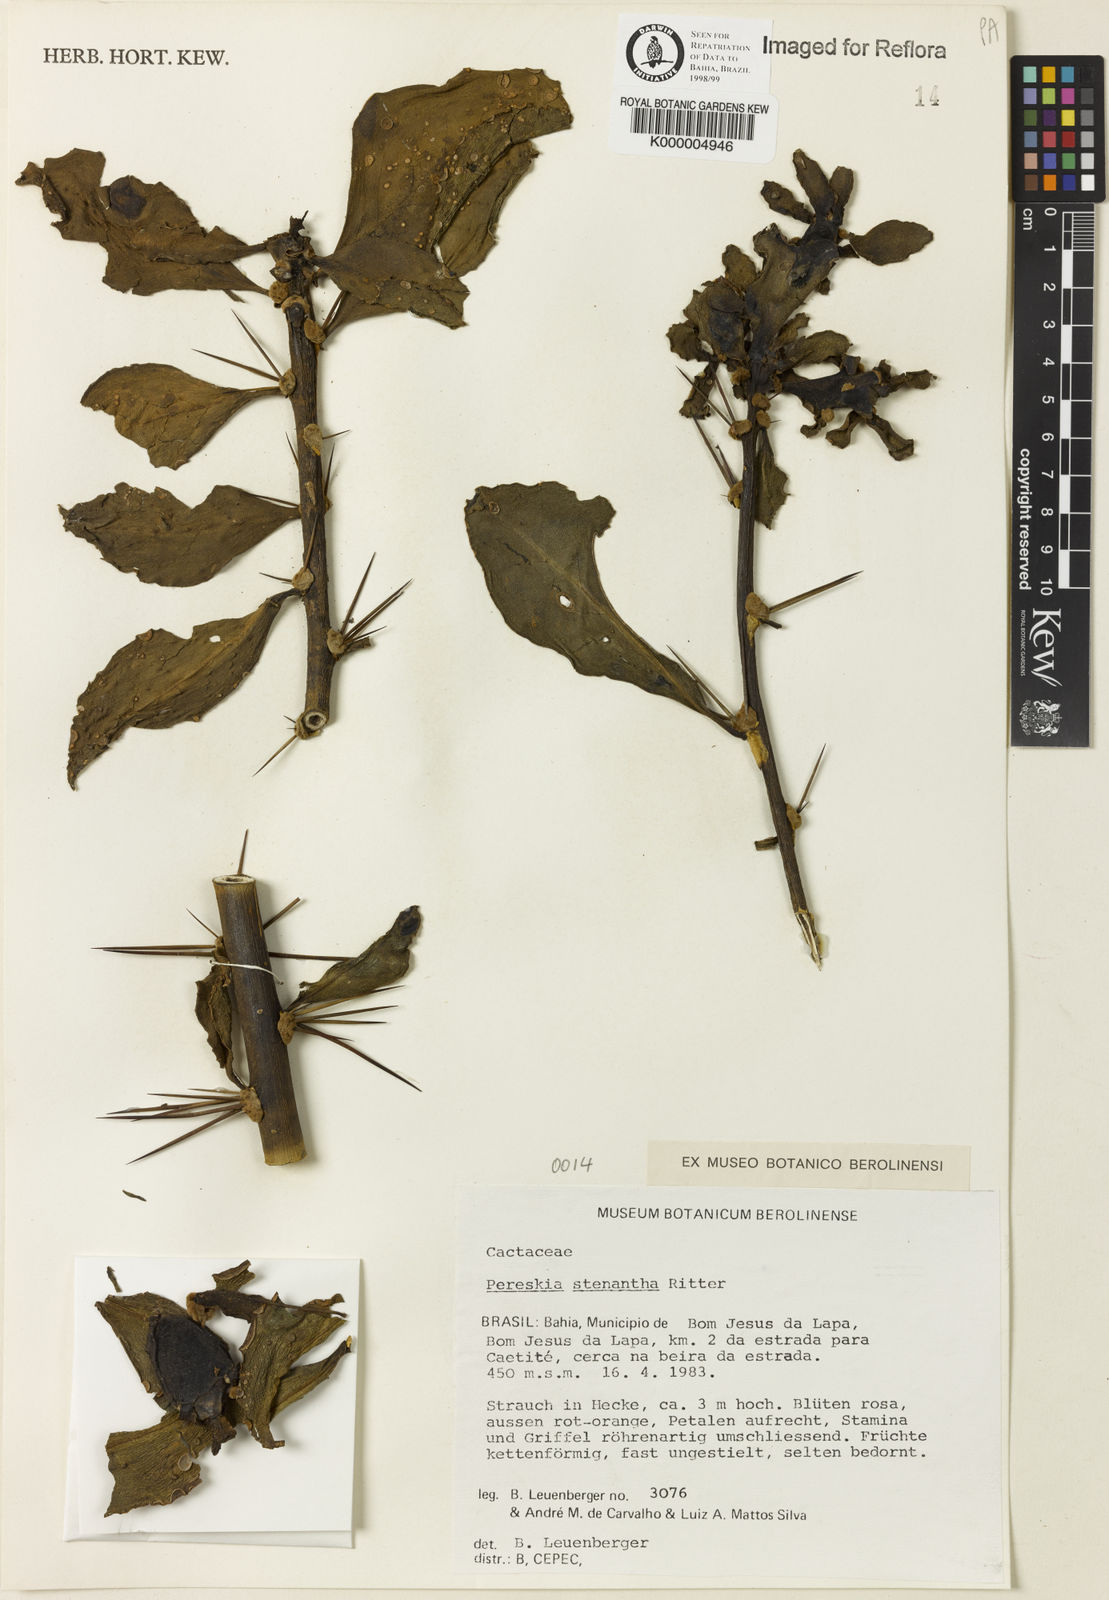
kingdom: Plantae
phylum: Tracheophyta
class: Magnoliopsida
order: Caryophyllales
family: Cactaceae
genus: Pereskia
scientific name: Pereskia stenantha
